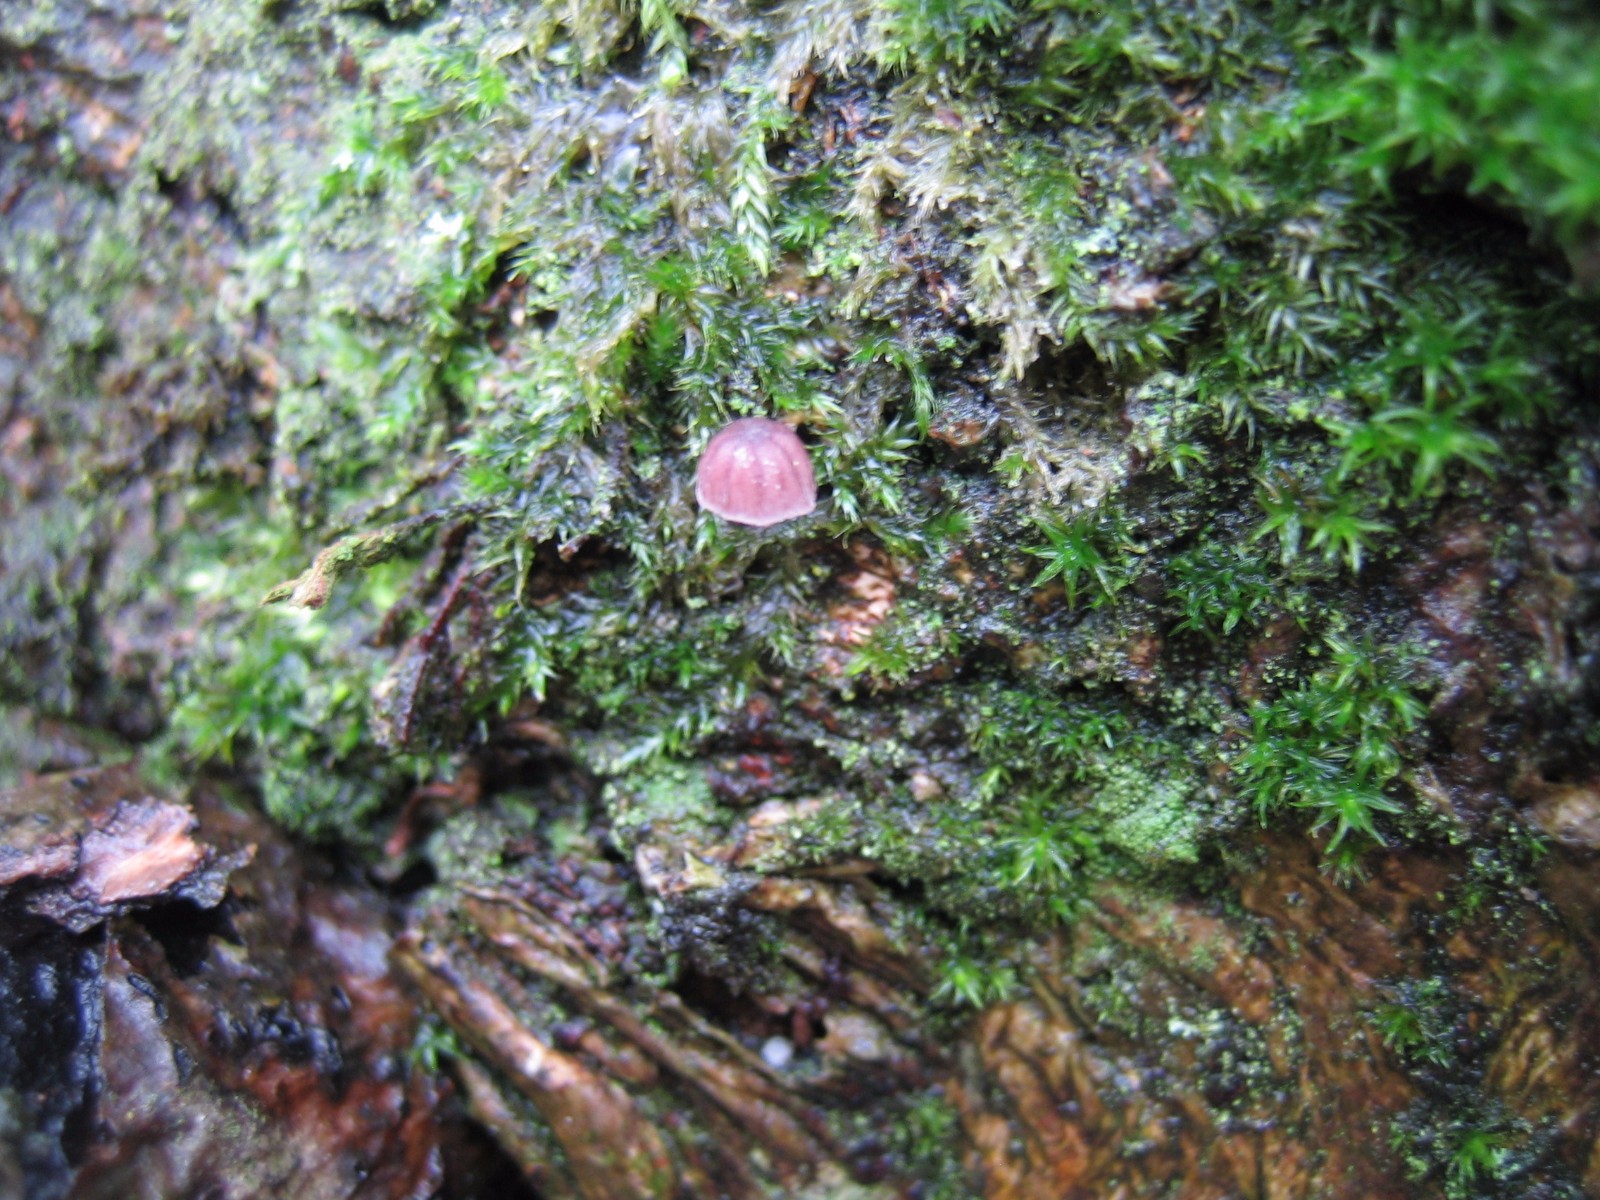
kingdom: Fungi
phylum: Basidiomycota
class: Agaricomycetes
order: Agaricales
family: Mycenaceae
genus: Mycena
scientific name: Mycena meliigena
